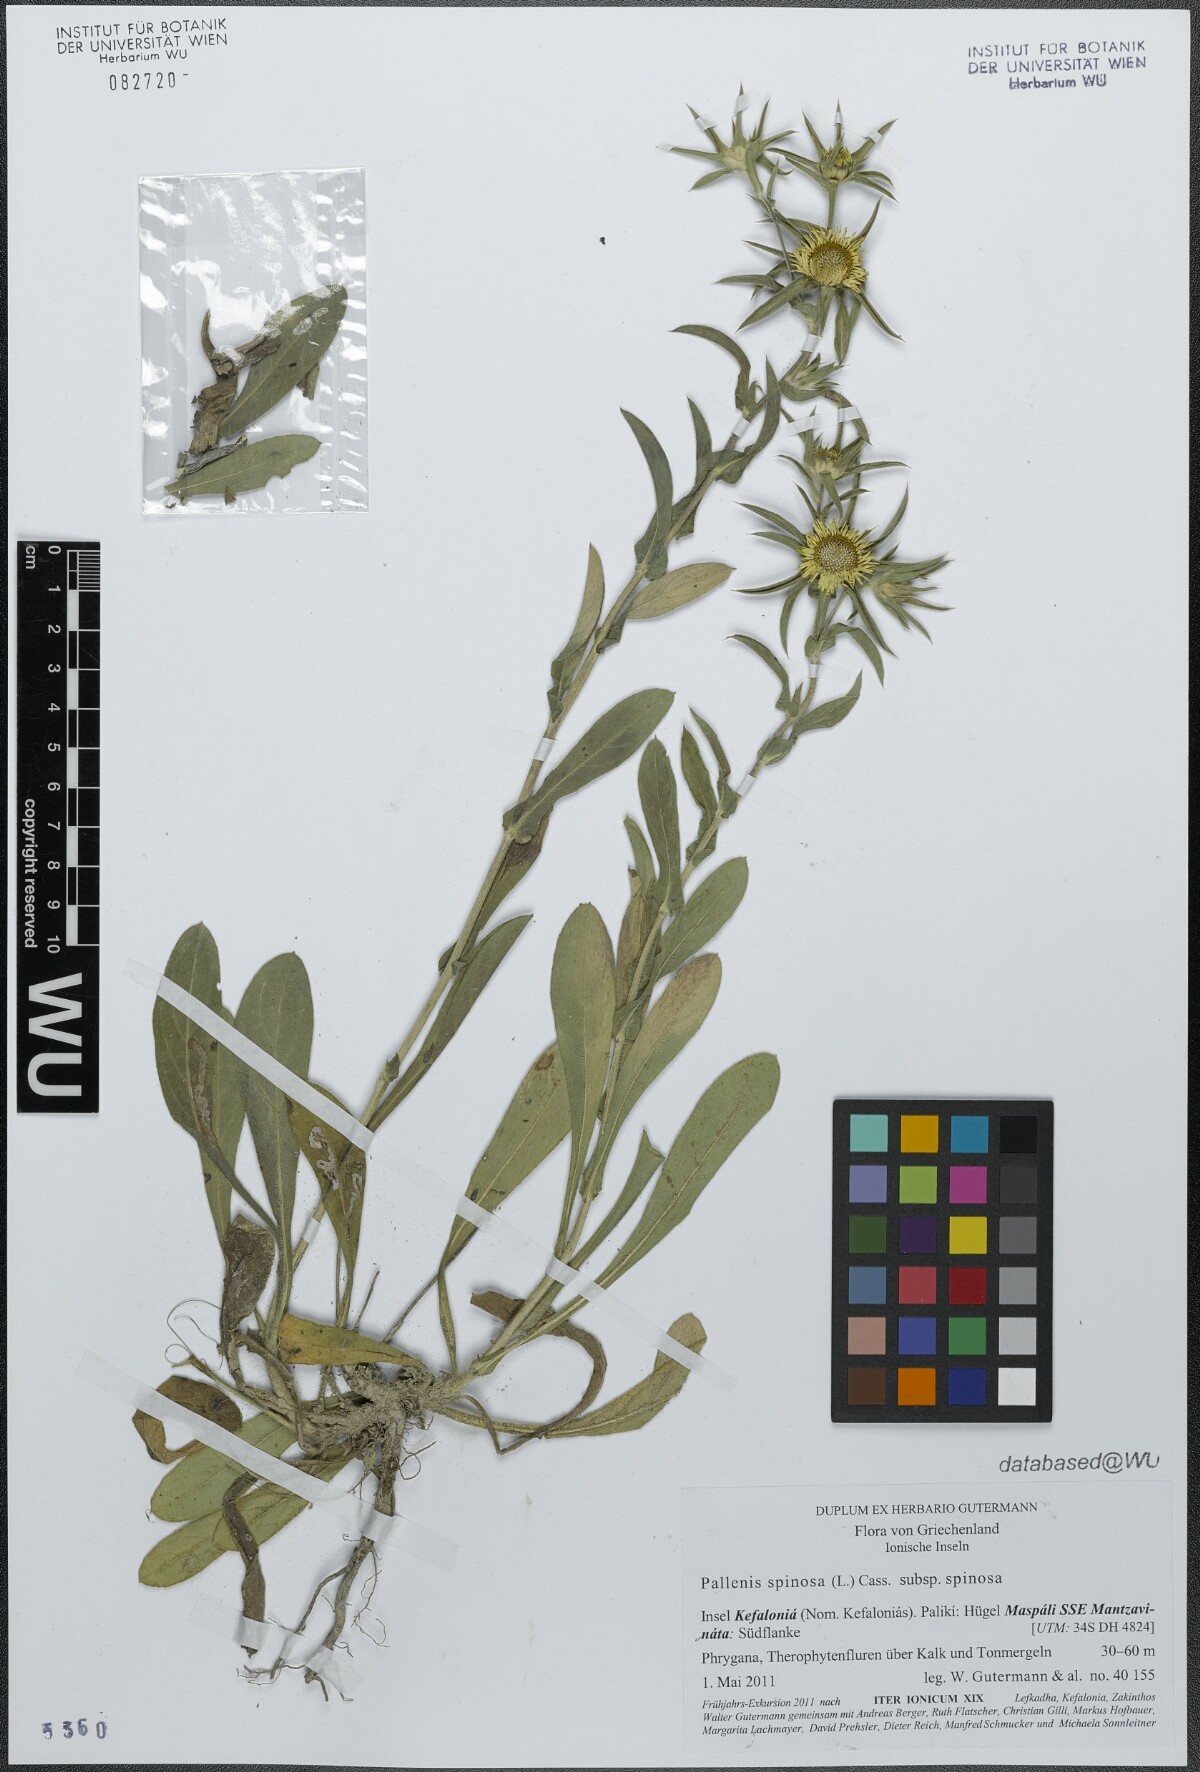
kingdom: Plantae
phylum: Tracheophyta
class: Magnoliopsida
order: Asterales
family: Asteraceae
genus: Pallenis
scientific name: Pallenis spinosa
